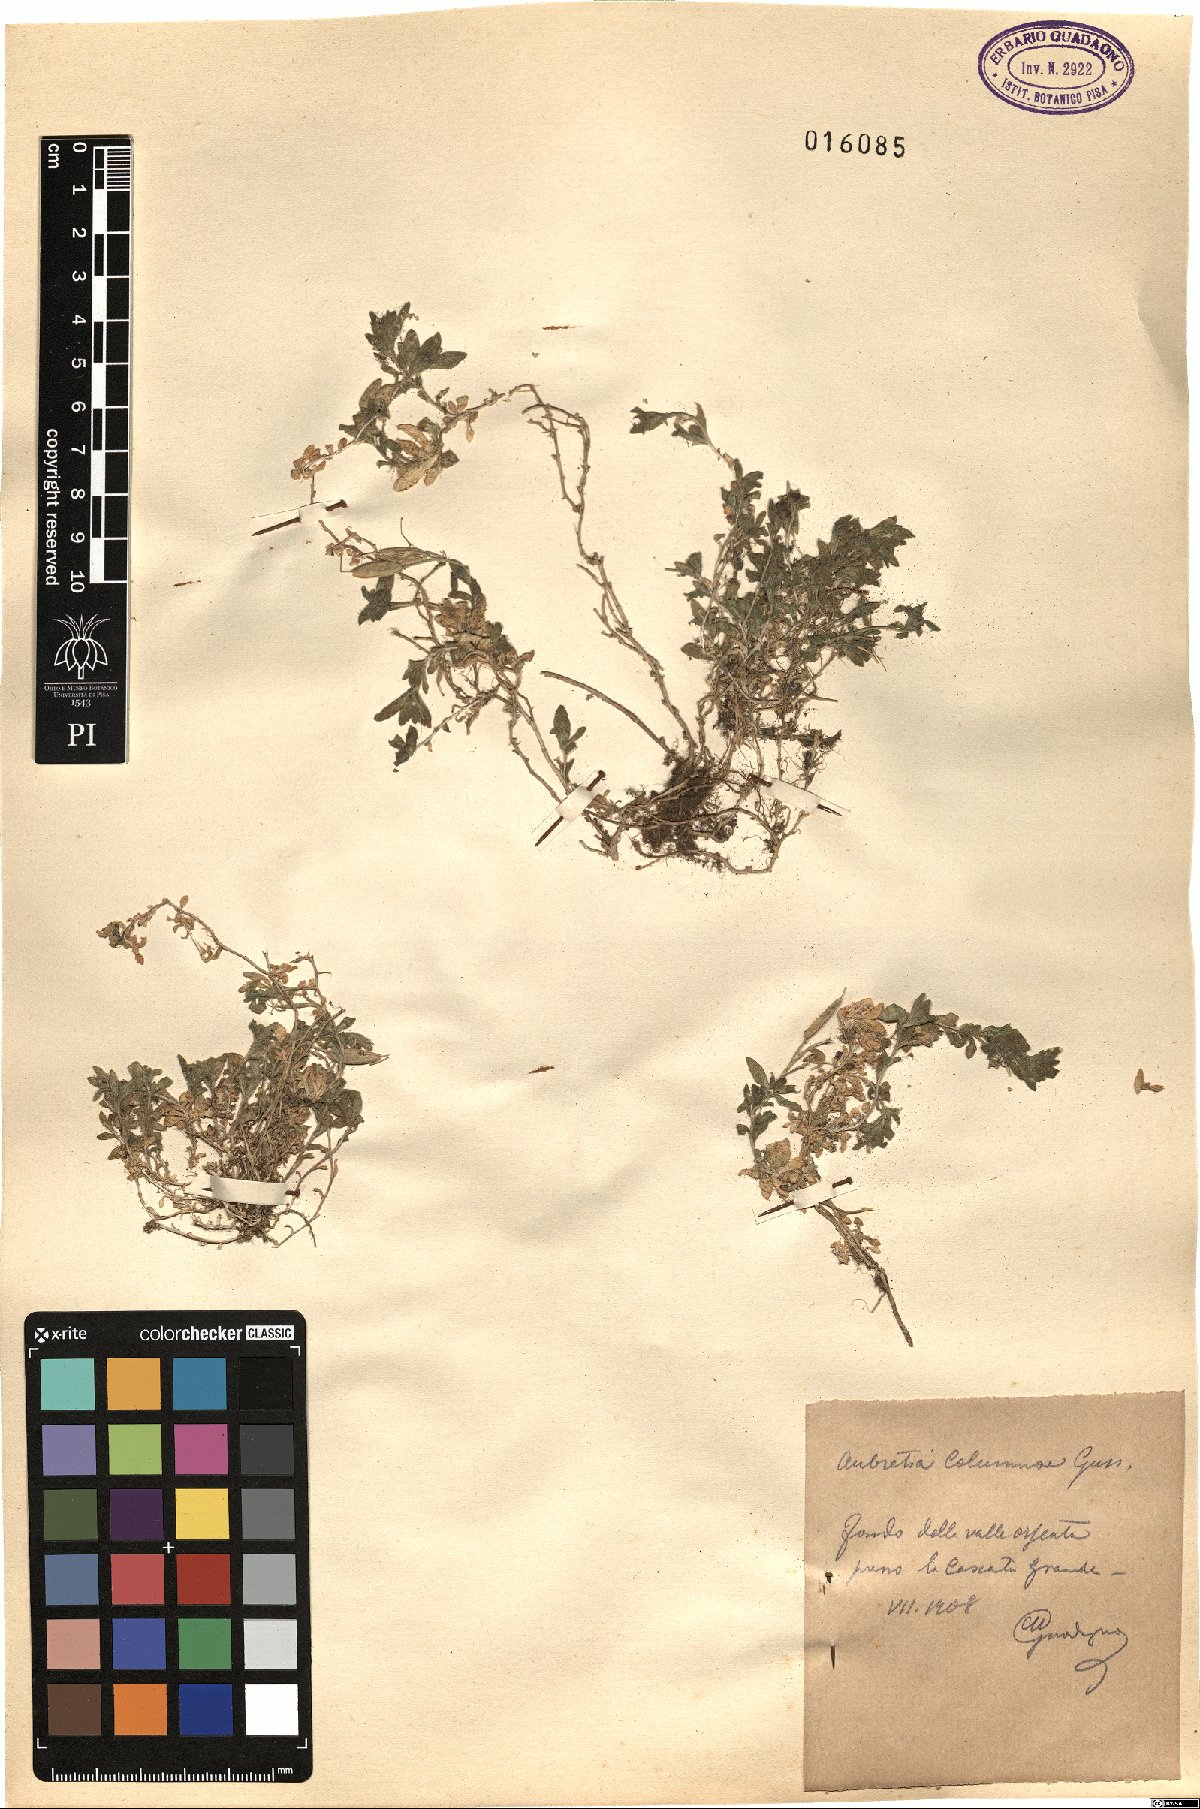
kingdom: Plantae
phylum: Tracheophyta
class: Magnoliopsida
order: Brassicales
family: Brassicaceae
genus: Aubrieta
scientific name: Aubrieta columnae
